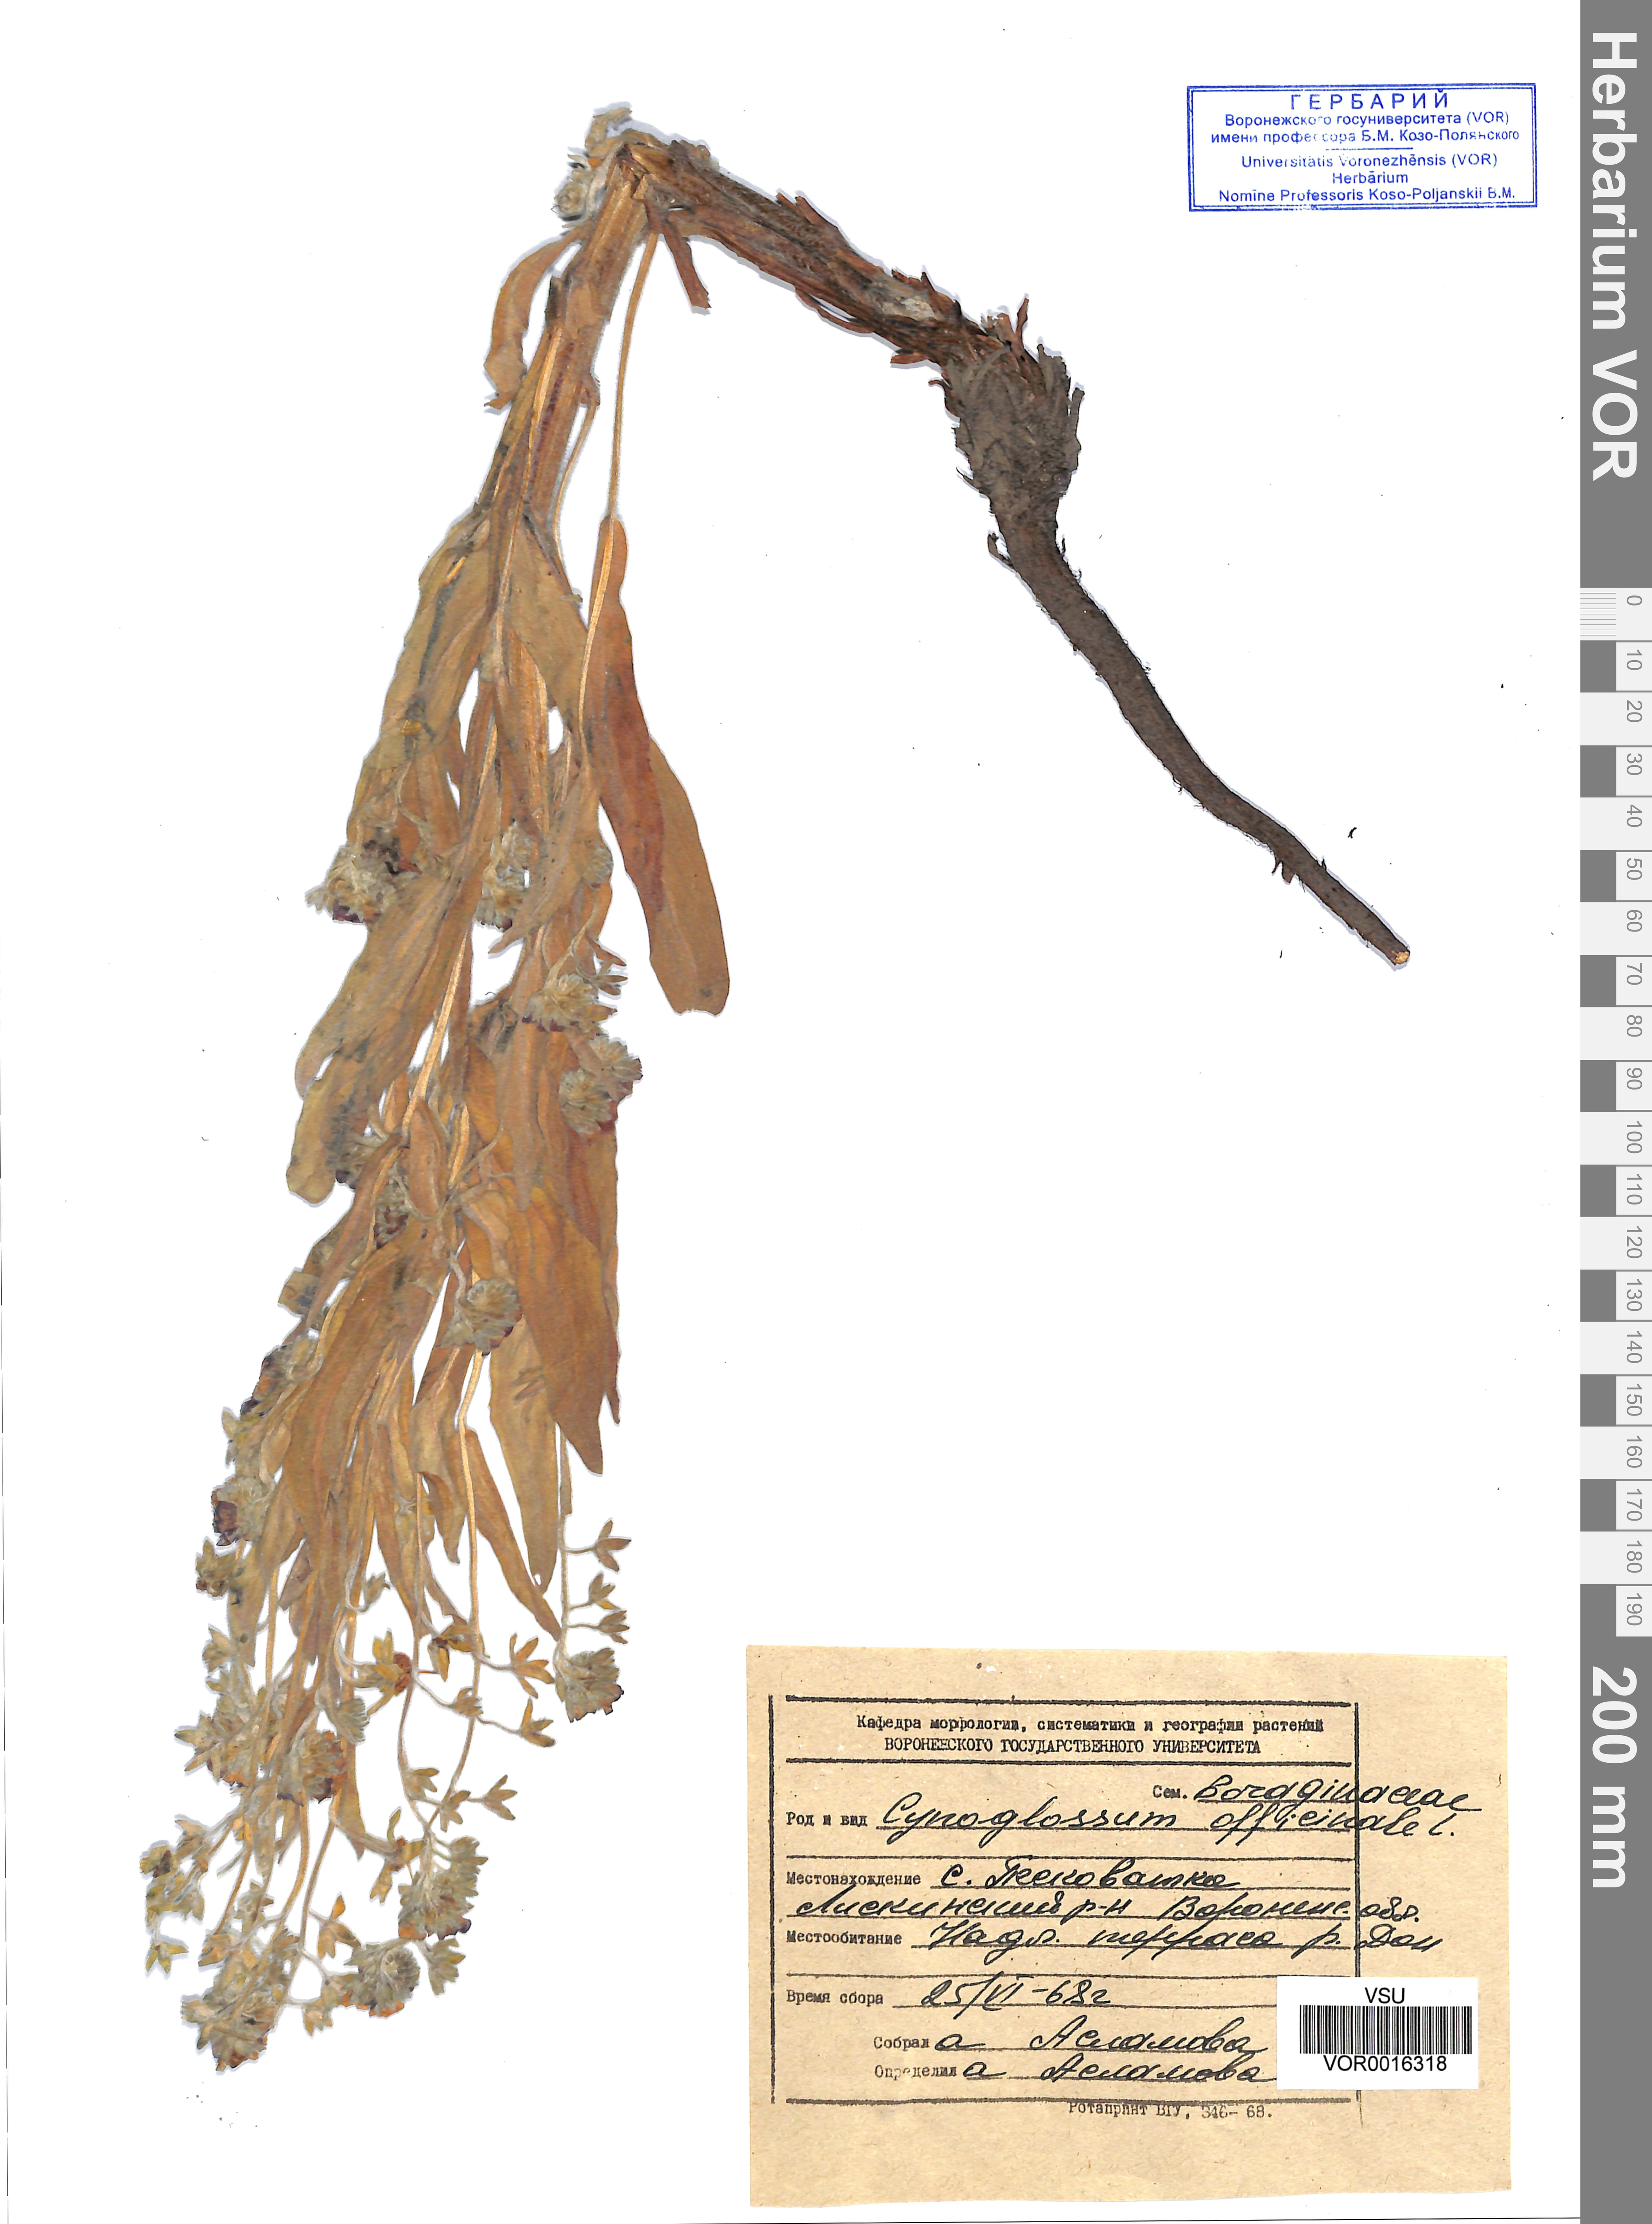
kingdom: Plantae
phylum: Tracheophyta
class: Magnoliopsida
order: Boraginales
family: Boraginaceae
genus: Cynoglossum
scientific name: Cynoglossum officinale
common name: Hound's-tongue
